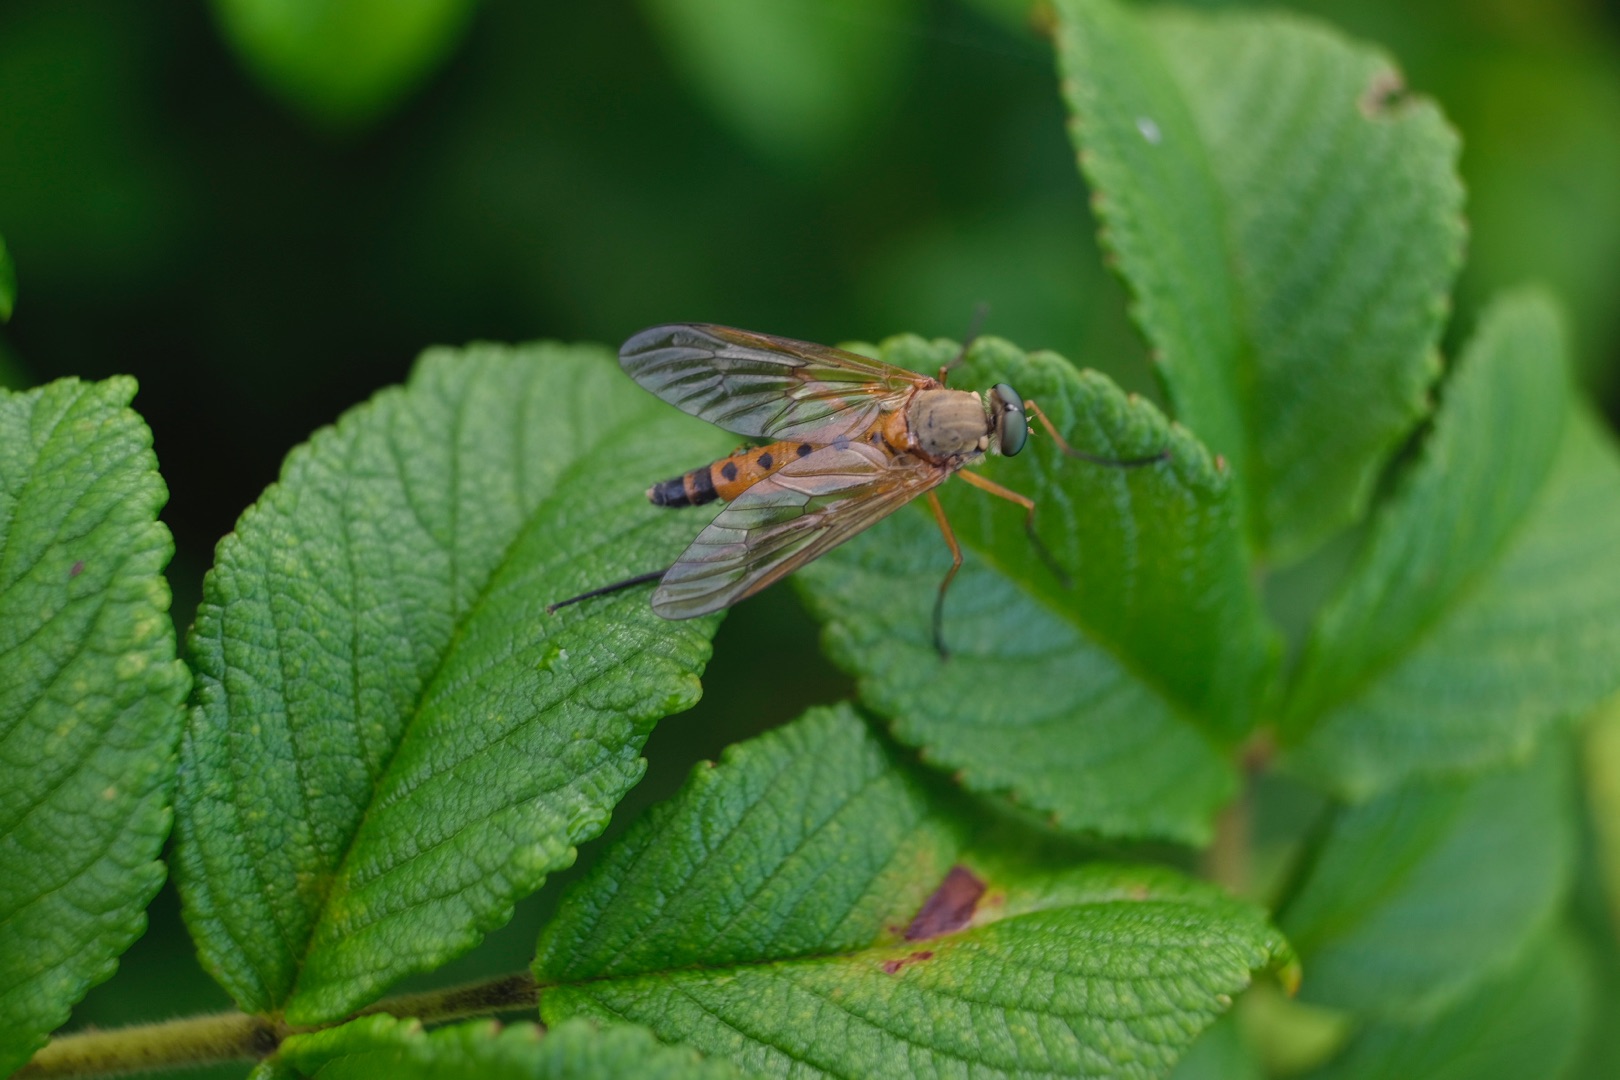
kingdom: Animalia
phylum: Arthropoda
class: Insecta
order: Diptera
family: Rhagionidae
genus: Rhagio
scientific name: Rhagio tringaria
